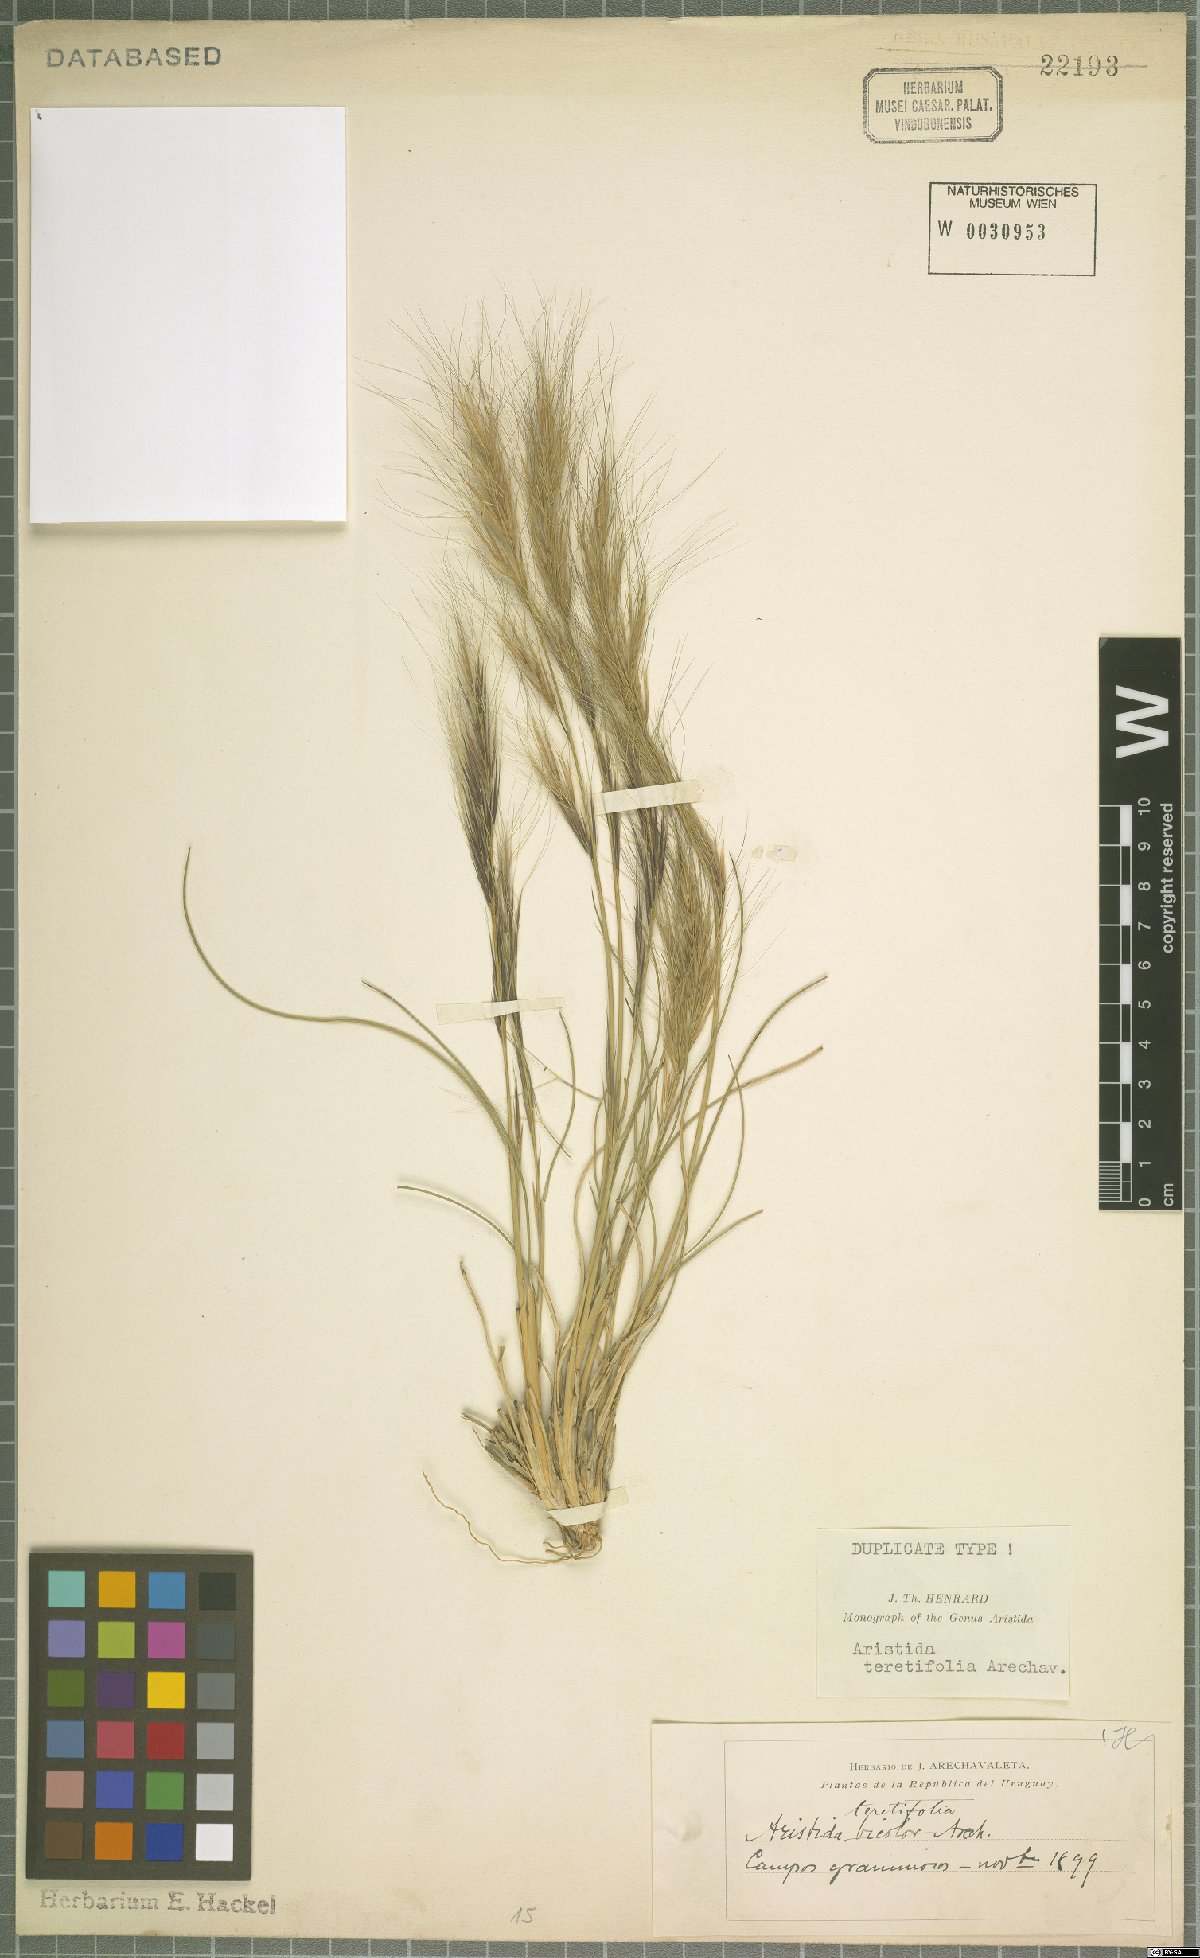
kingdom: Plantae
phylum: Tracheophyta
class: Liliopsida
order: Poales
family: Poaceae
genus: Aristida
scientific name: Aristida teretifolia
